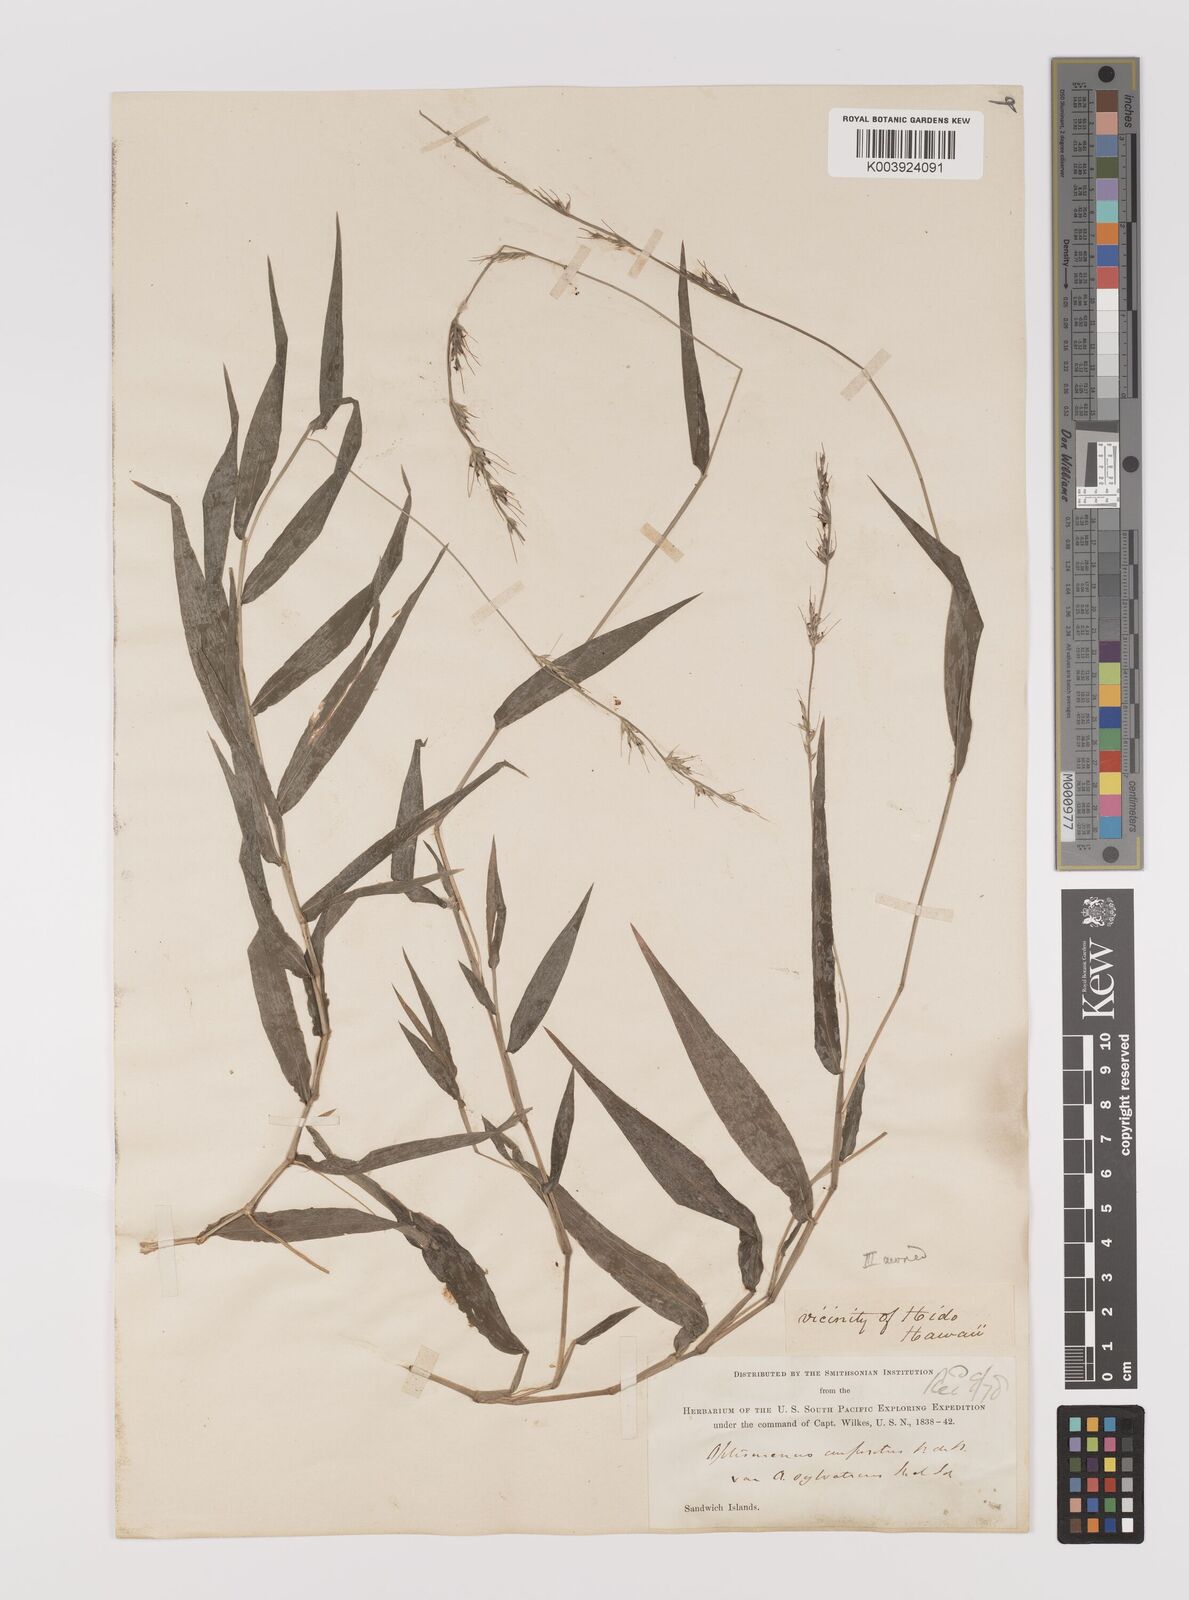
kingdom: Plantae
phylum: Tracheophyta
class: Liliopsida
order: Poales
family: Poaceae
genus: Oplismenus
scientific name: Oplismenus hirtellus
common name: Basketgrass
